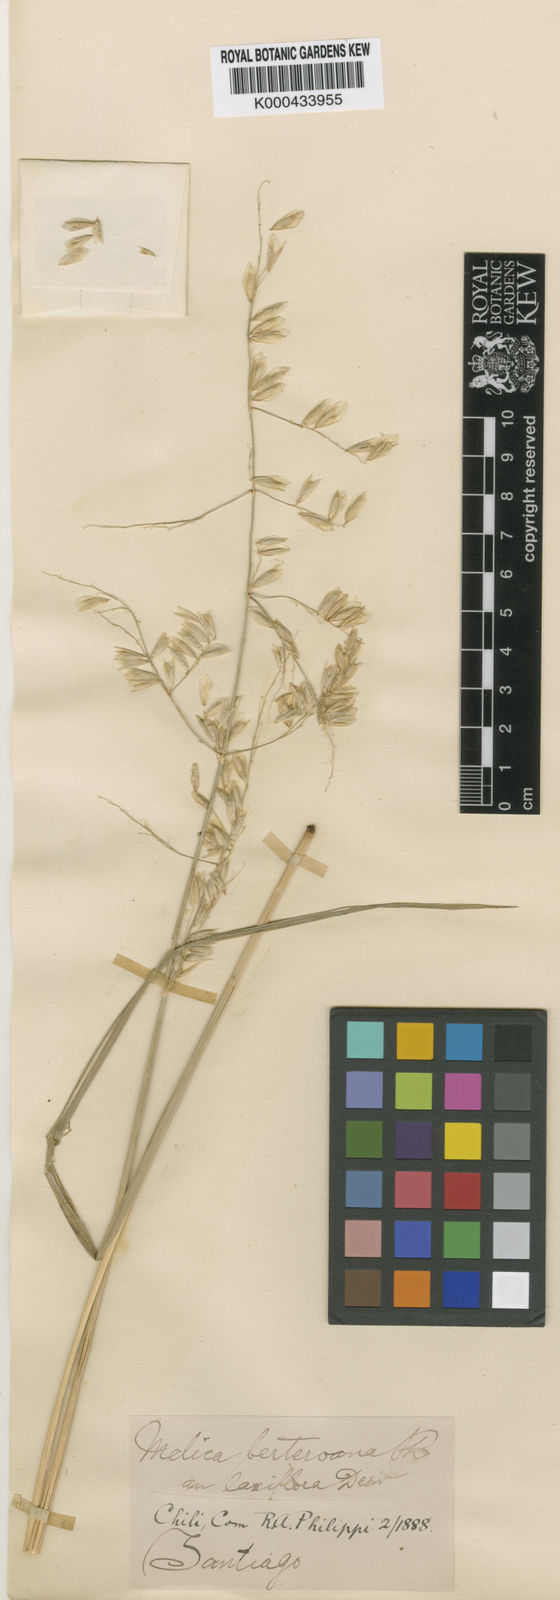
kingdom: Plantae
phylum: Tracheophyta
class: Liliopsida
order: Poales
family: Poaceae
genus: Melica
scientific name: Melica longiflora
